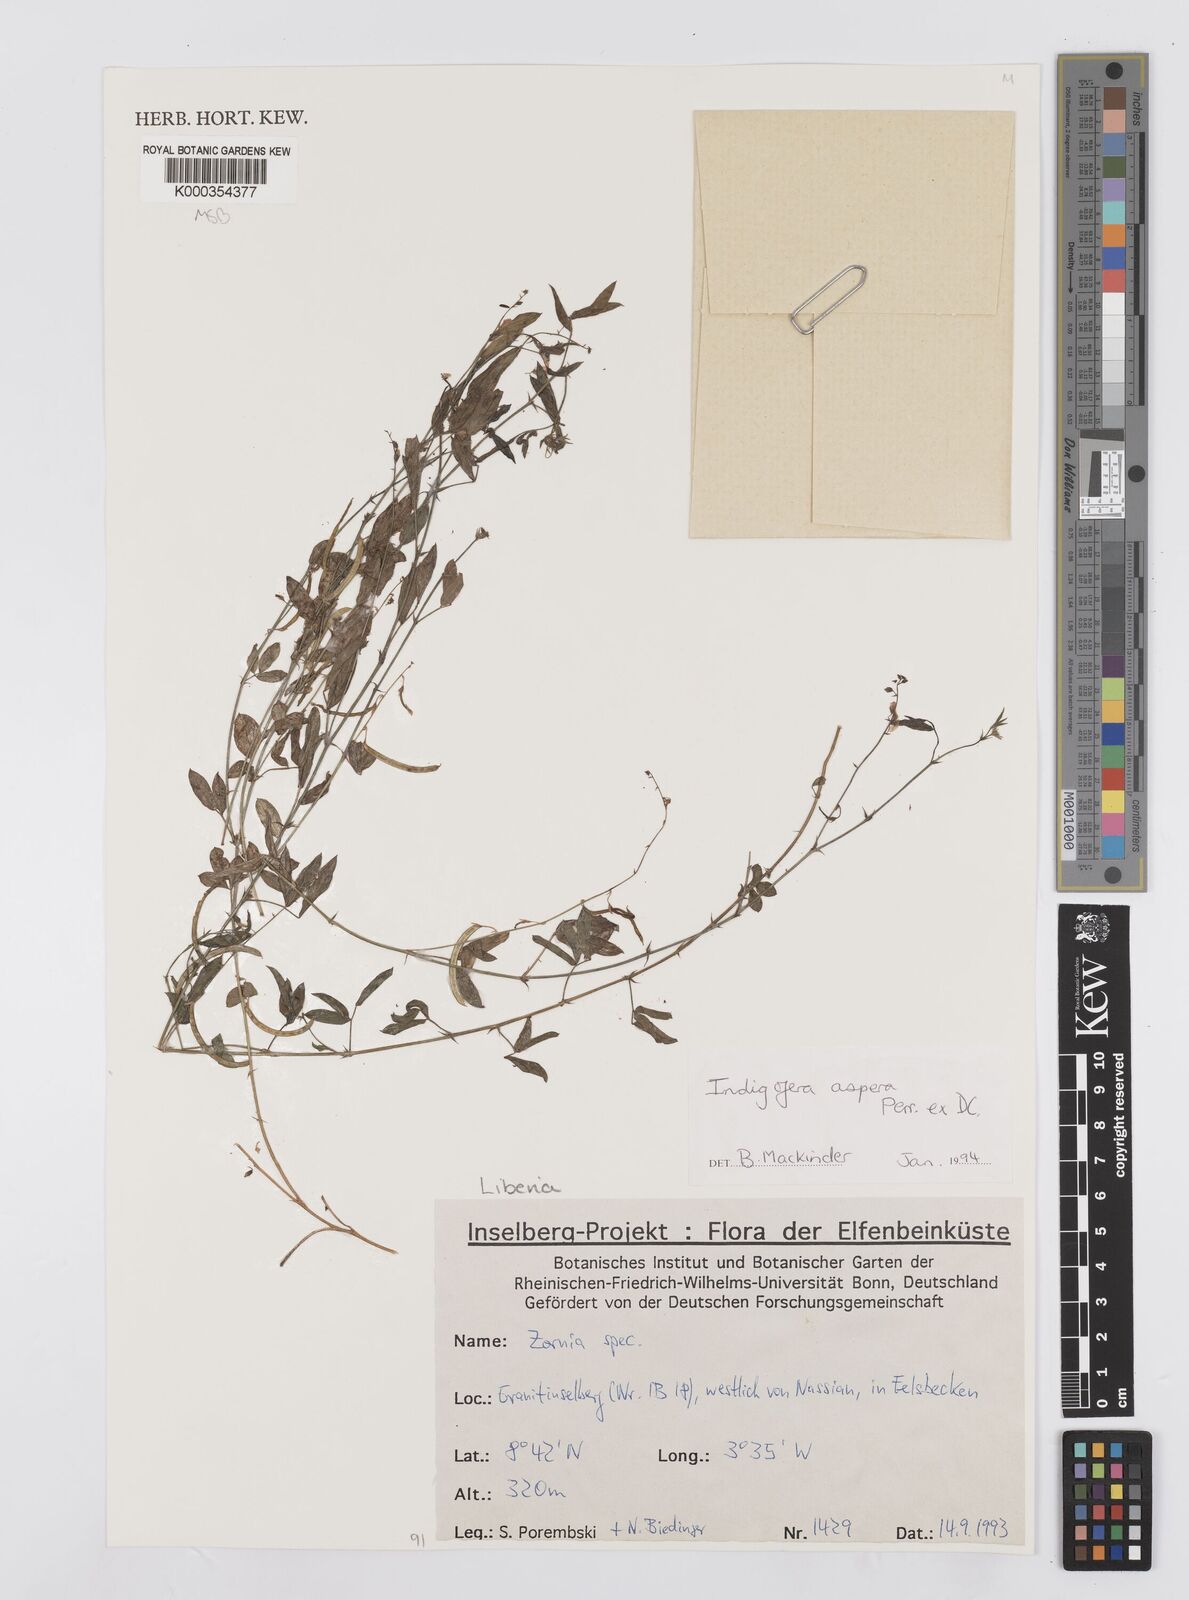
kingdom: Plantae
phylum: Tracheophyta
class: Magnoliopsida
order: Fabales
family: Fabaceae
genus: Indigofera
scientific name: Indigofera aspera
